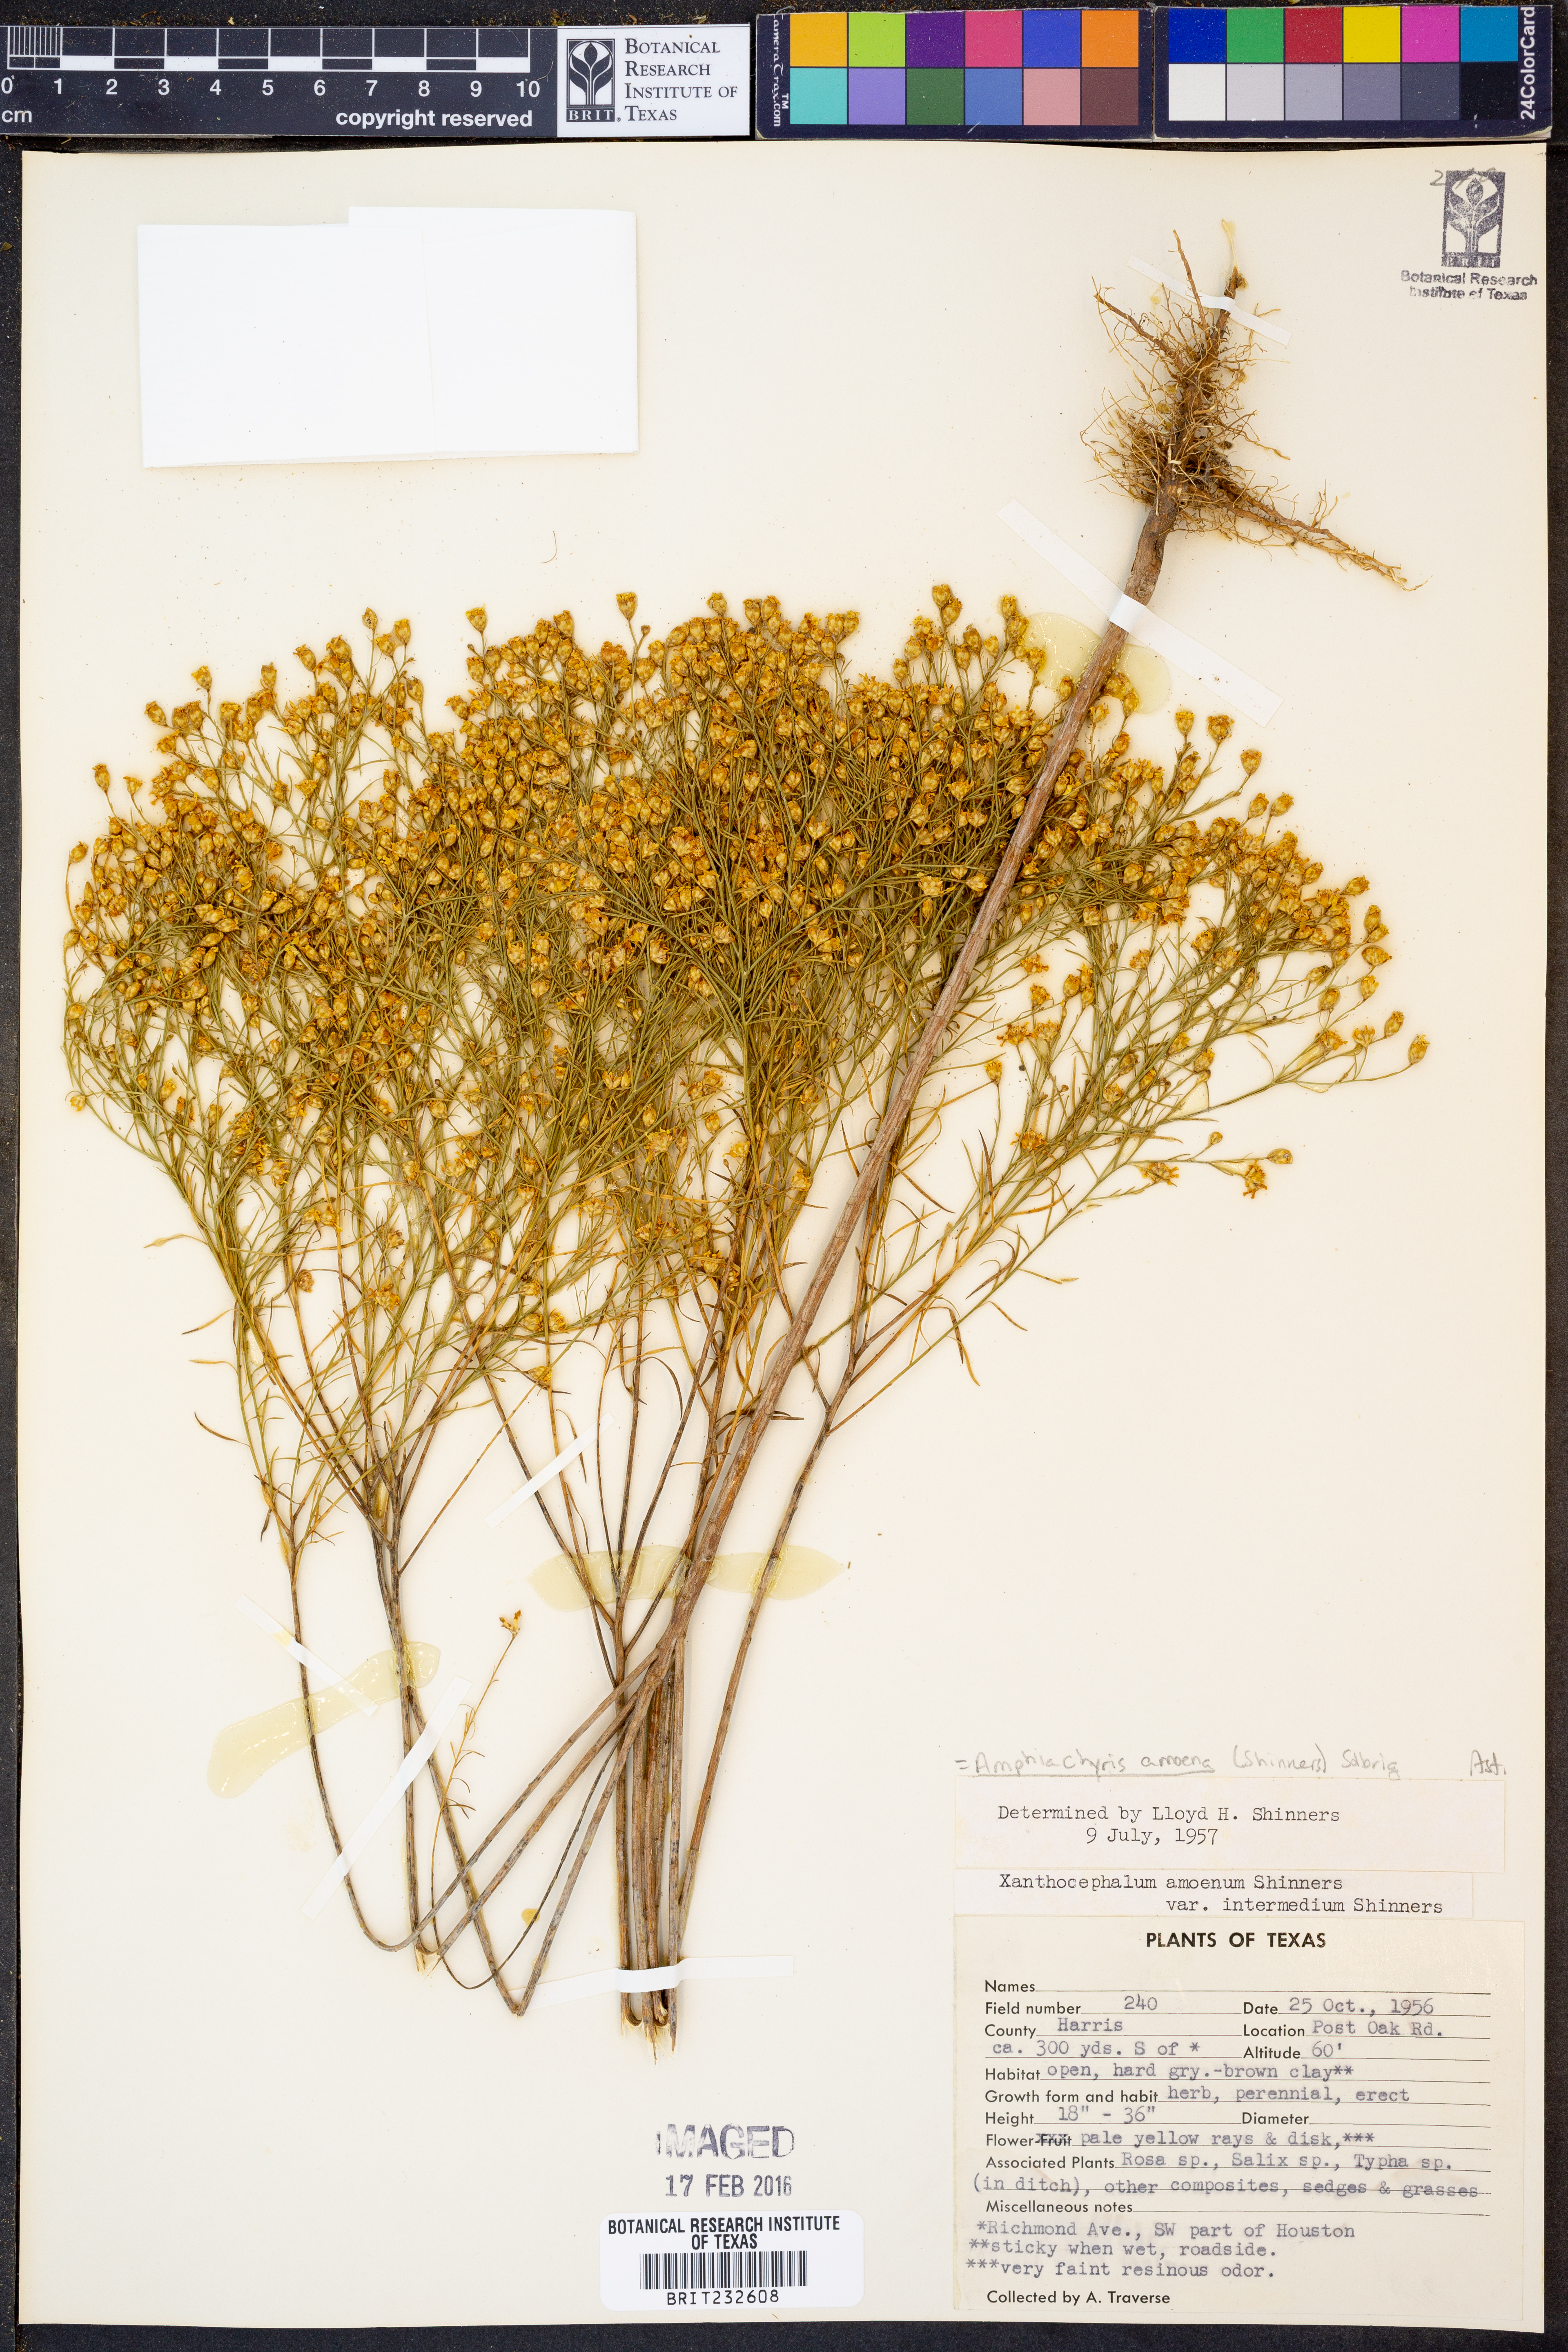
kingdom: Plantae
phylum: Tracheophyta
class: Magnoliopsida
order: Asterales
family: Asteraceae
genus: Amphiachyris
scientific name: Amphiachyris amoenum
